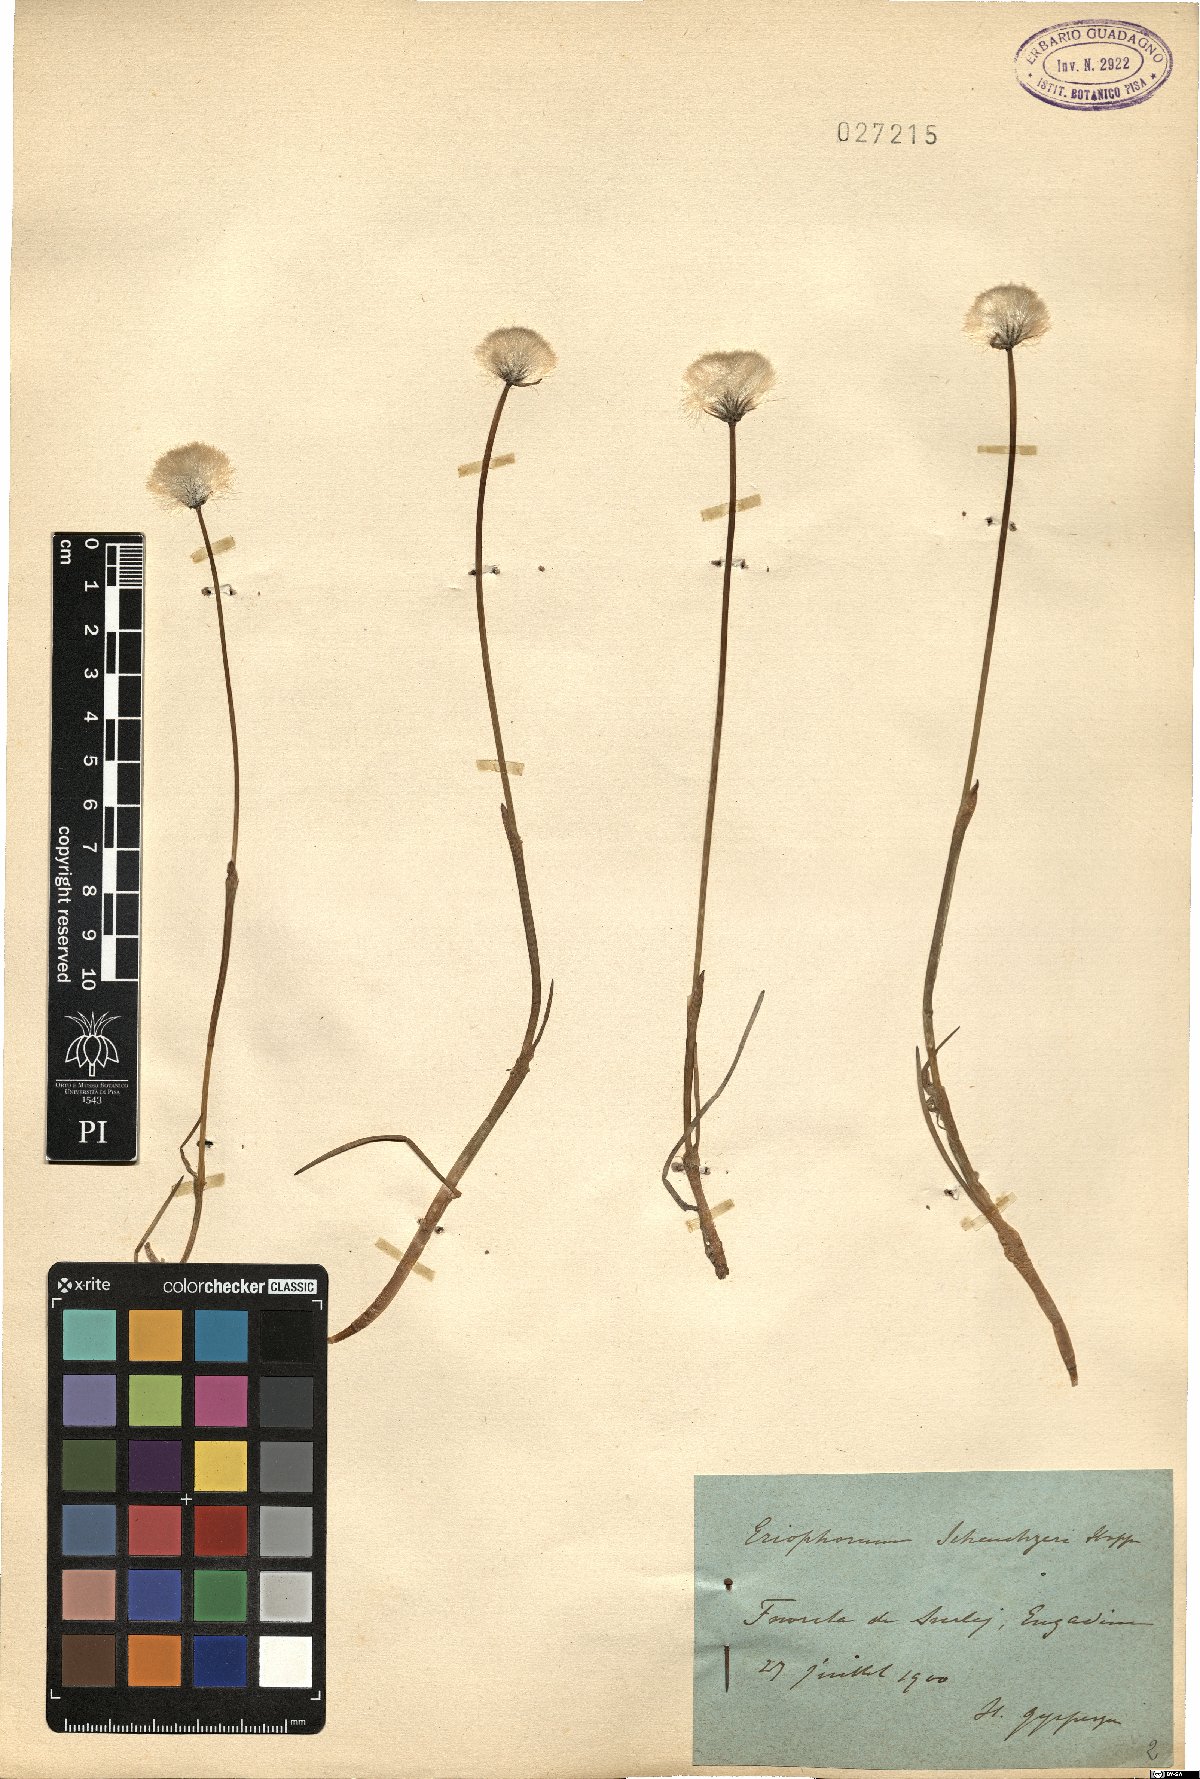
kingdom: Plantae
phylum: Tracheophyta
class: Liliopsida
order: Poales
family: Cyperaceae
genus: Eriophorum
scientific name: Eriophorum scheuchzeri
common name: Scheuchzer's cottongrass
